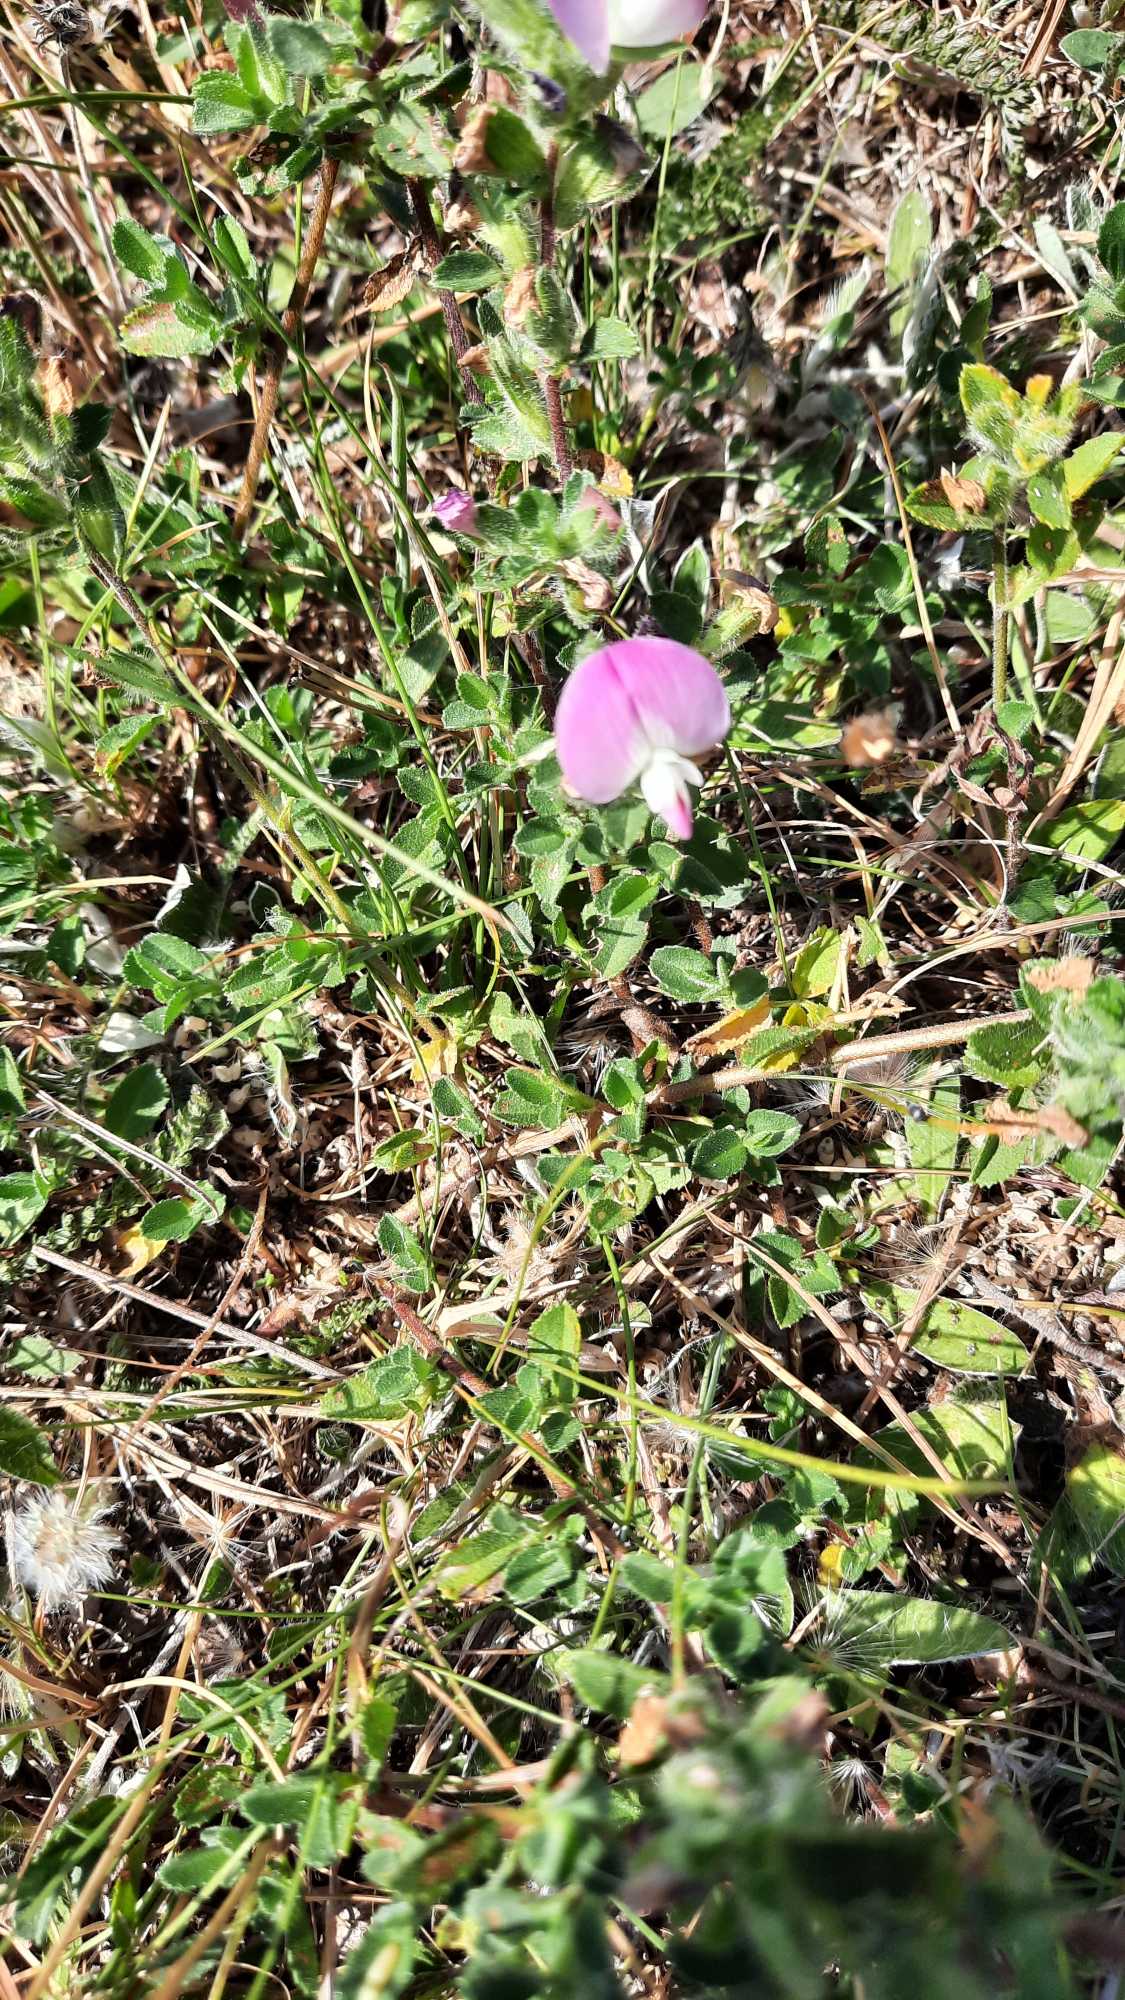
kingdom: Plantae
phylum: Tracheophyta
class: Magnoliopsida
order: Fabales
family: Fabaceae
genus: Ononis
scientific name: Ononis spinosa
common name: Mark-krageklo
